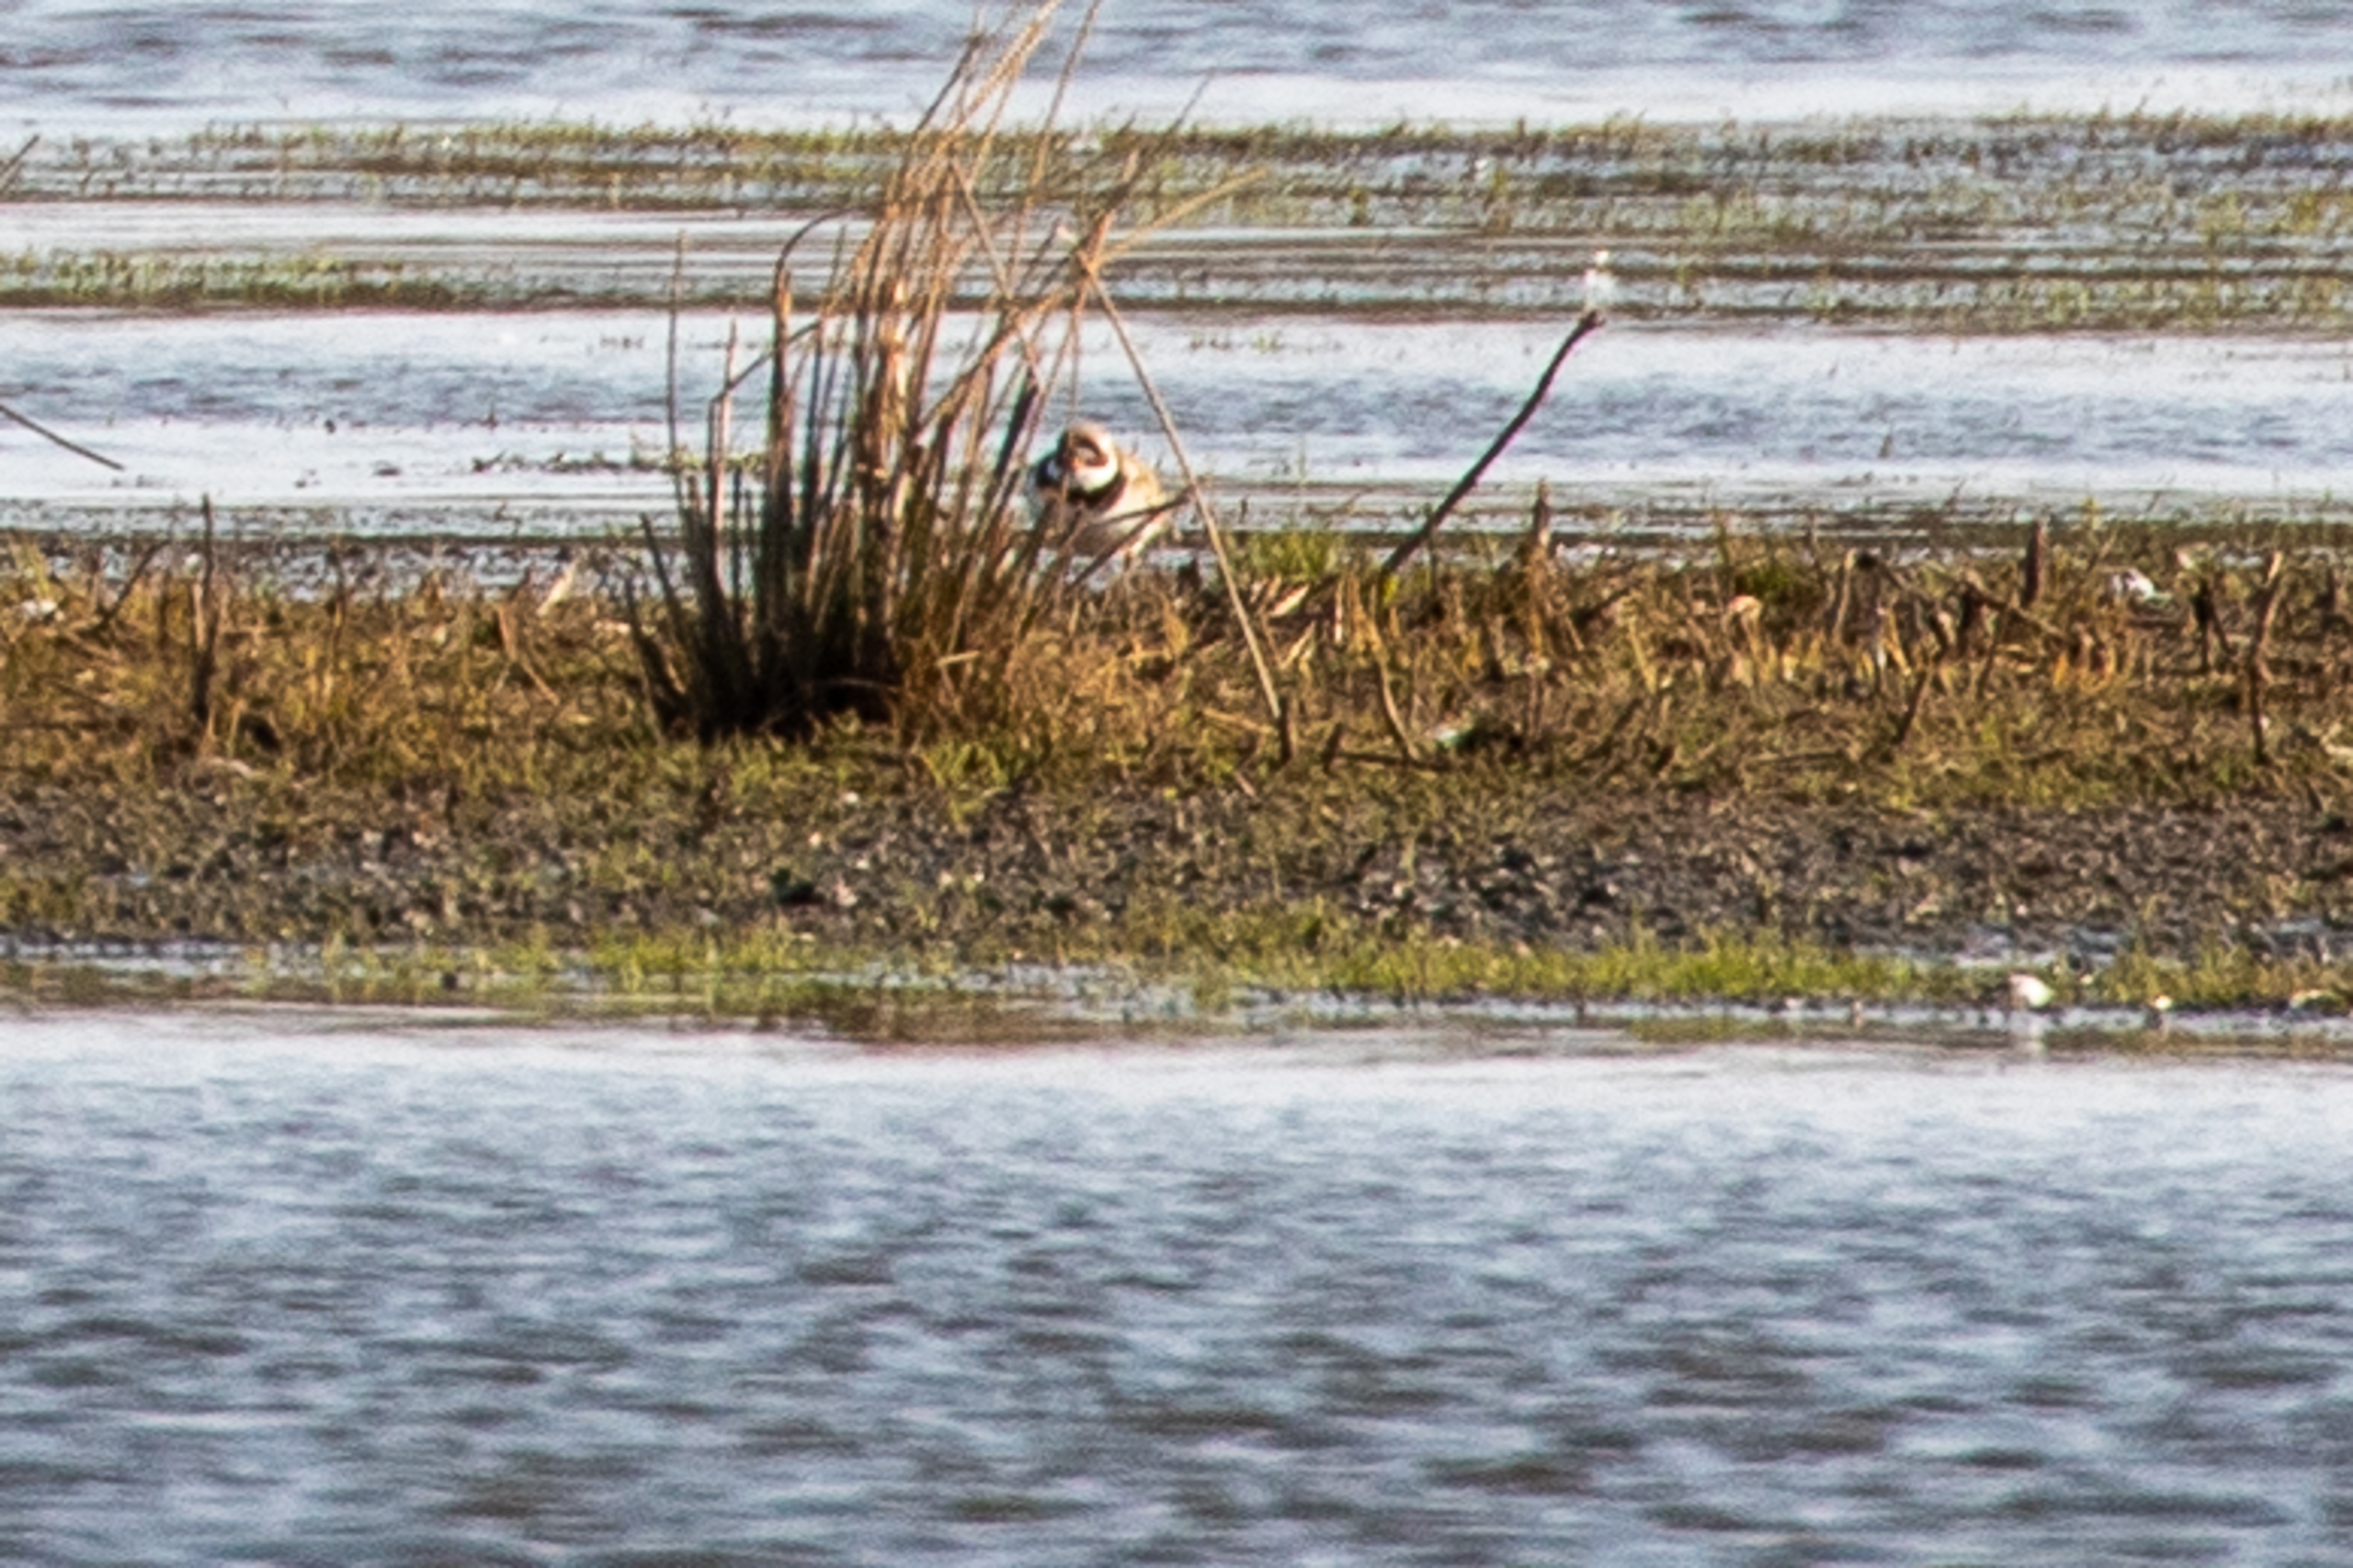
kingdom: Animalia
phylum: Chordata
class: Aves
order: Charadriiformes
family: Charadriidae
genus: Charadrius
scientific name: Charadrius hiaticula
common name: Stor præstekrave
